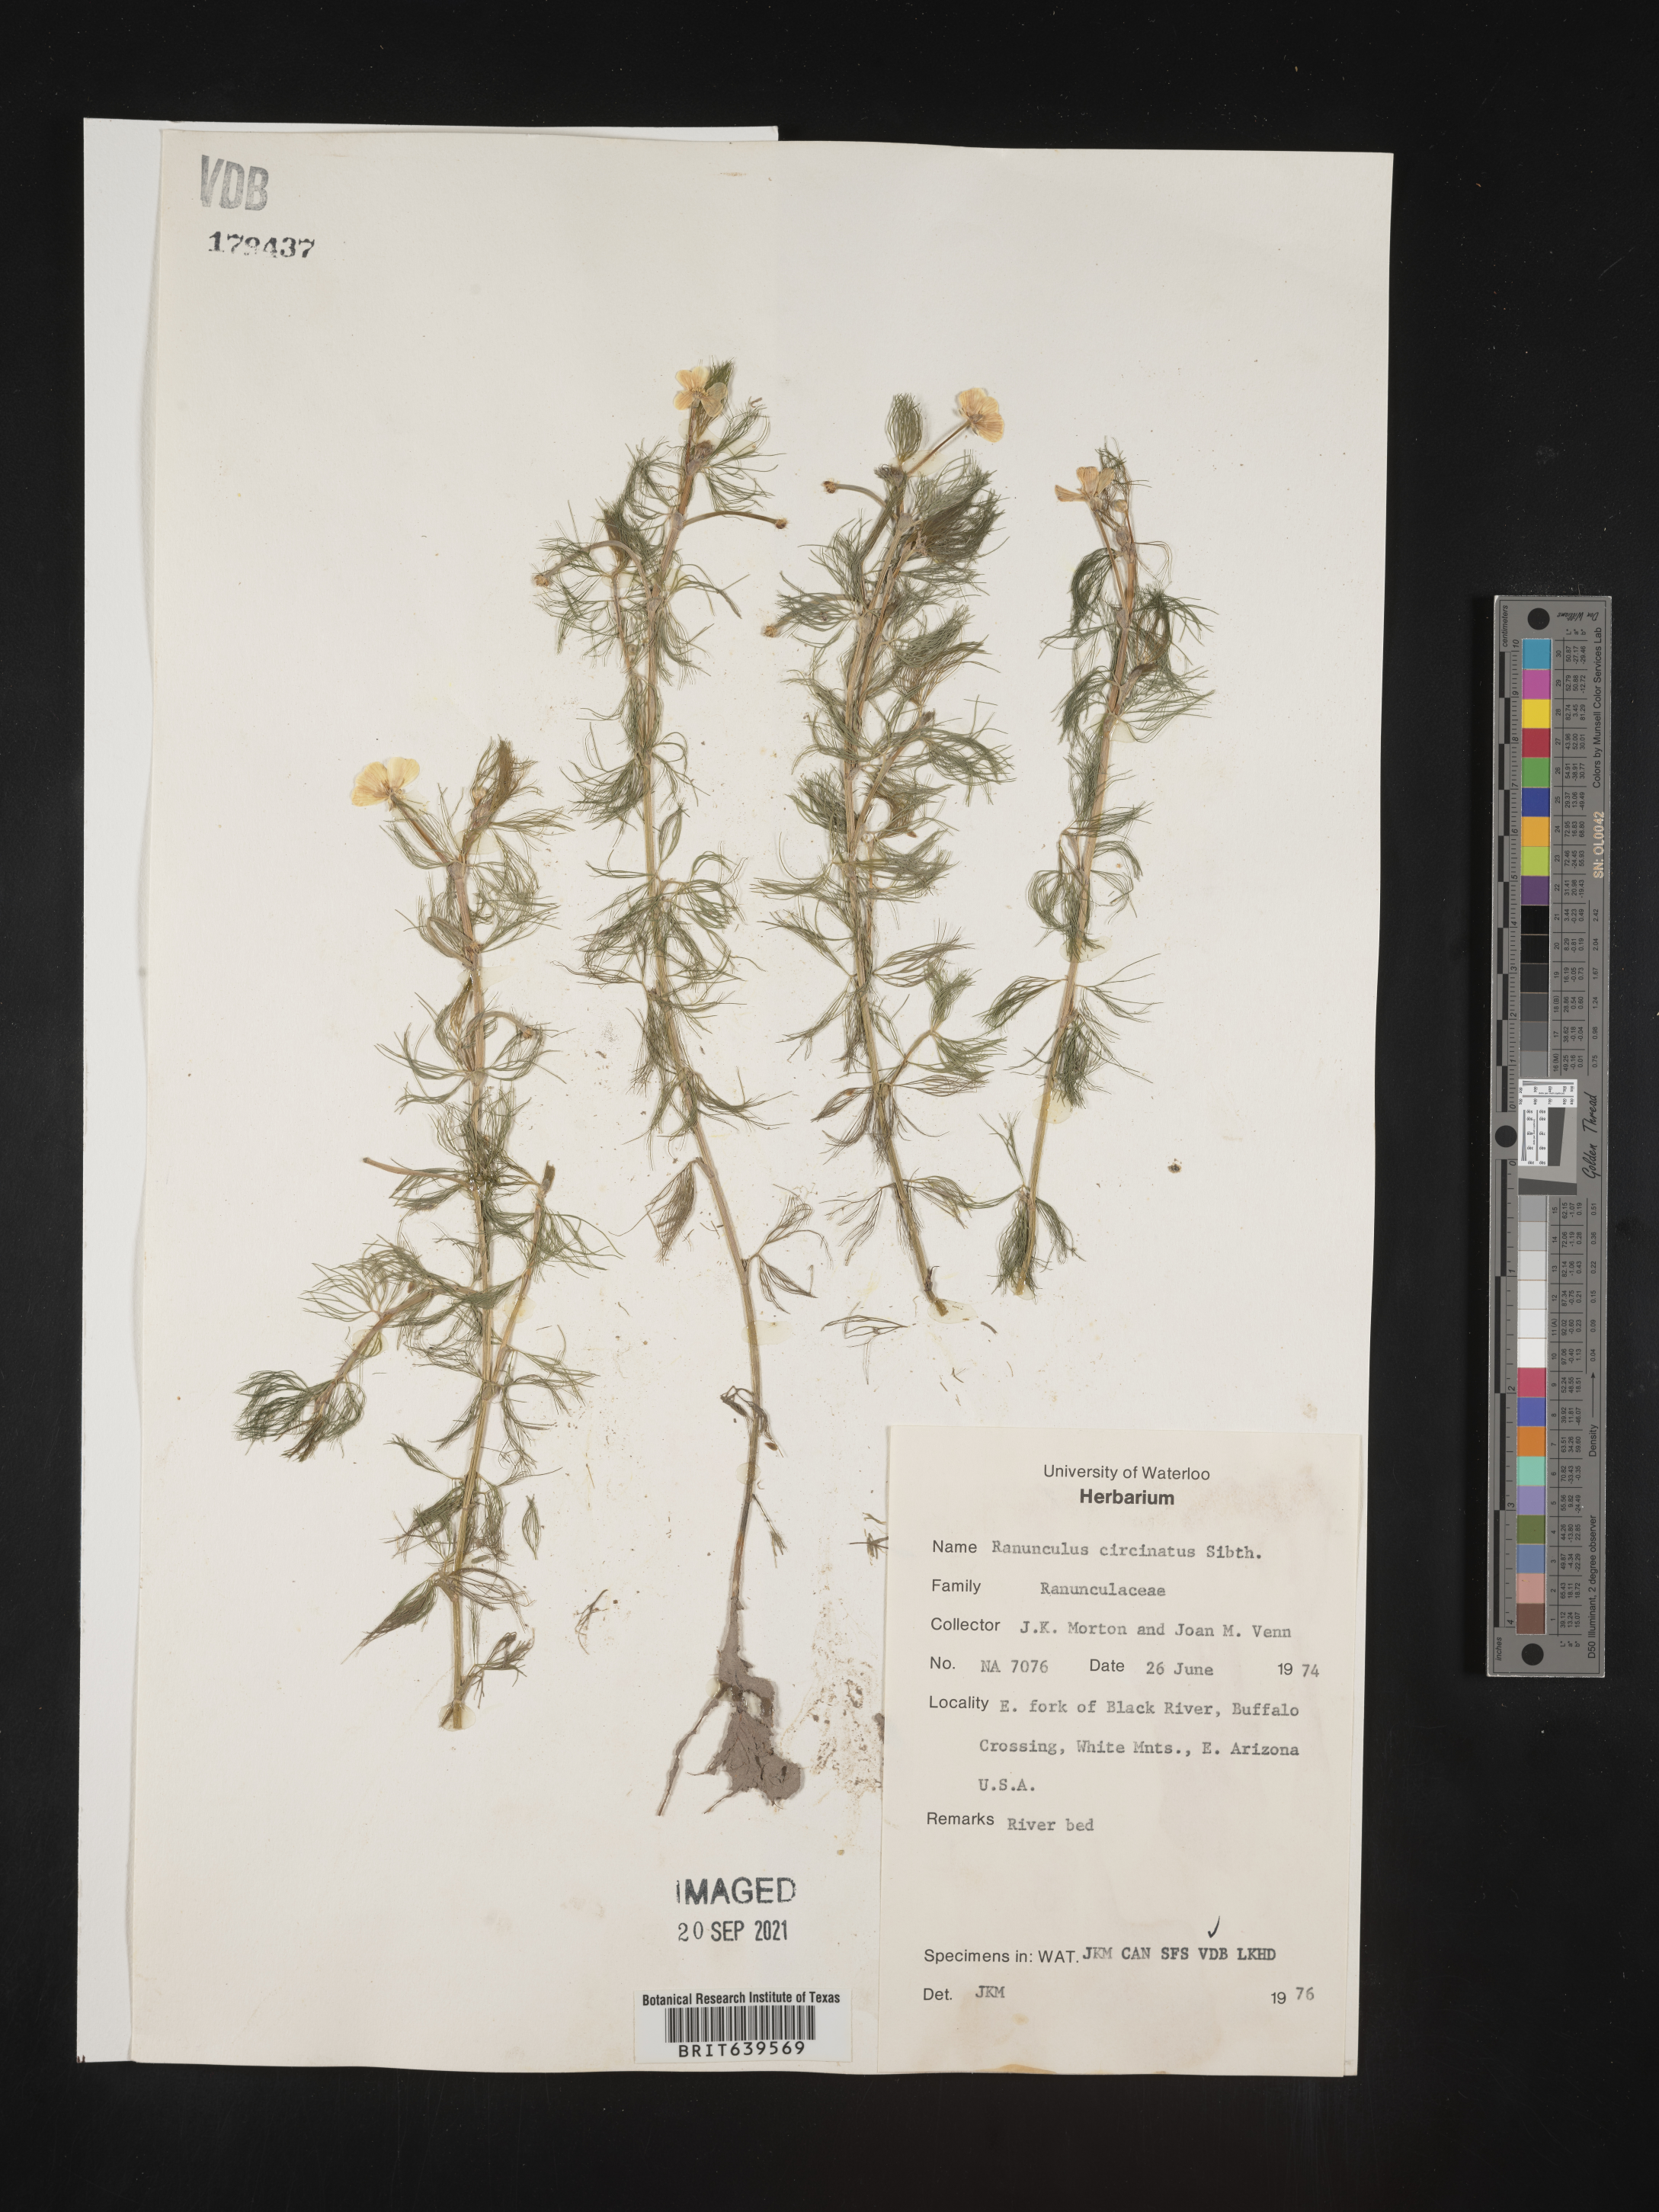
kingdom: Plantae
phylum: Tracheophyta
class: Magnoliopsida
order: Ranunculales
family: Ranunculaceae
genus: Ranunculus
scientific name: Ranunculus
